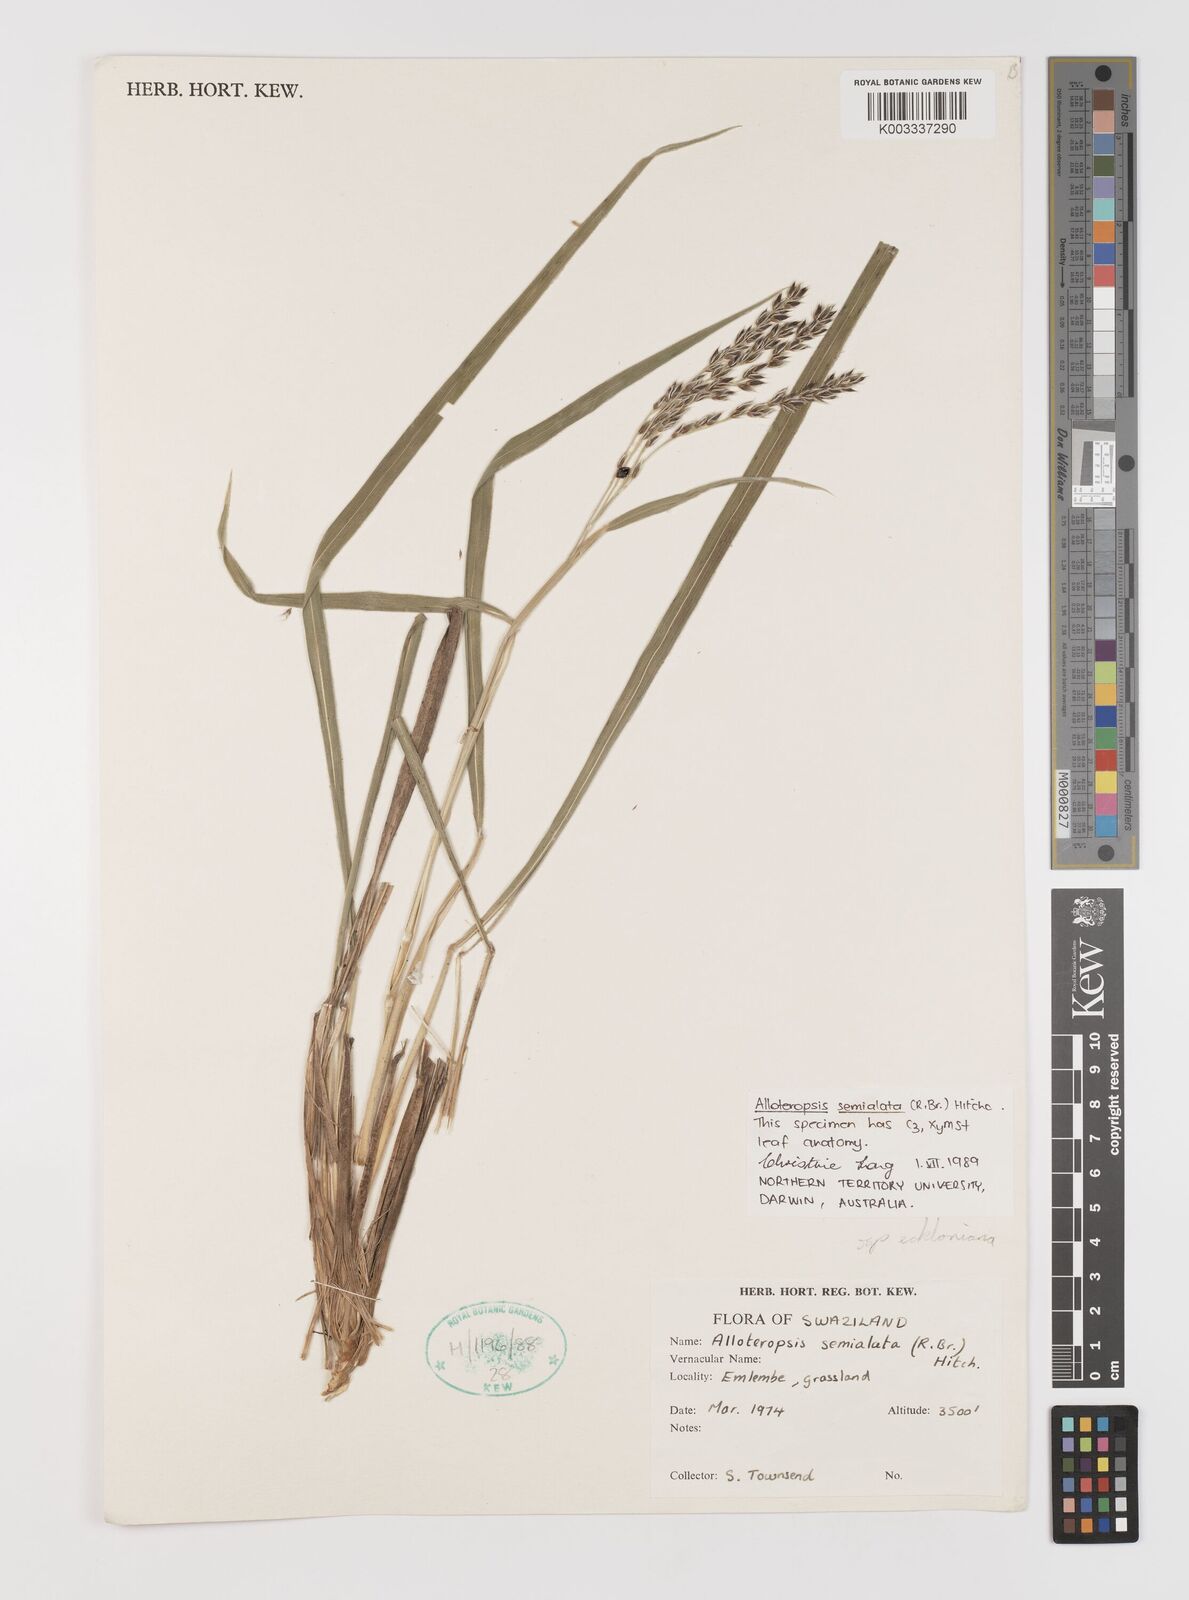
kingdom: Plantae
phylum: Tracheophyta
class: Liliopsida
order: Poales
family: Poaceae
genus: Alloteropsis
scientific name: Alloteropsis semialata
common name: Cockatoo grass
